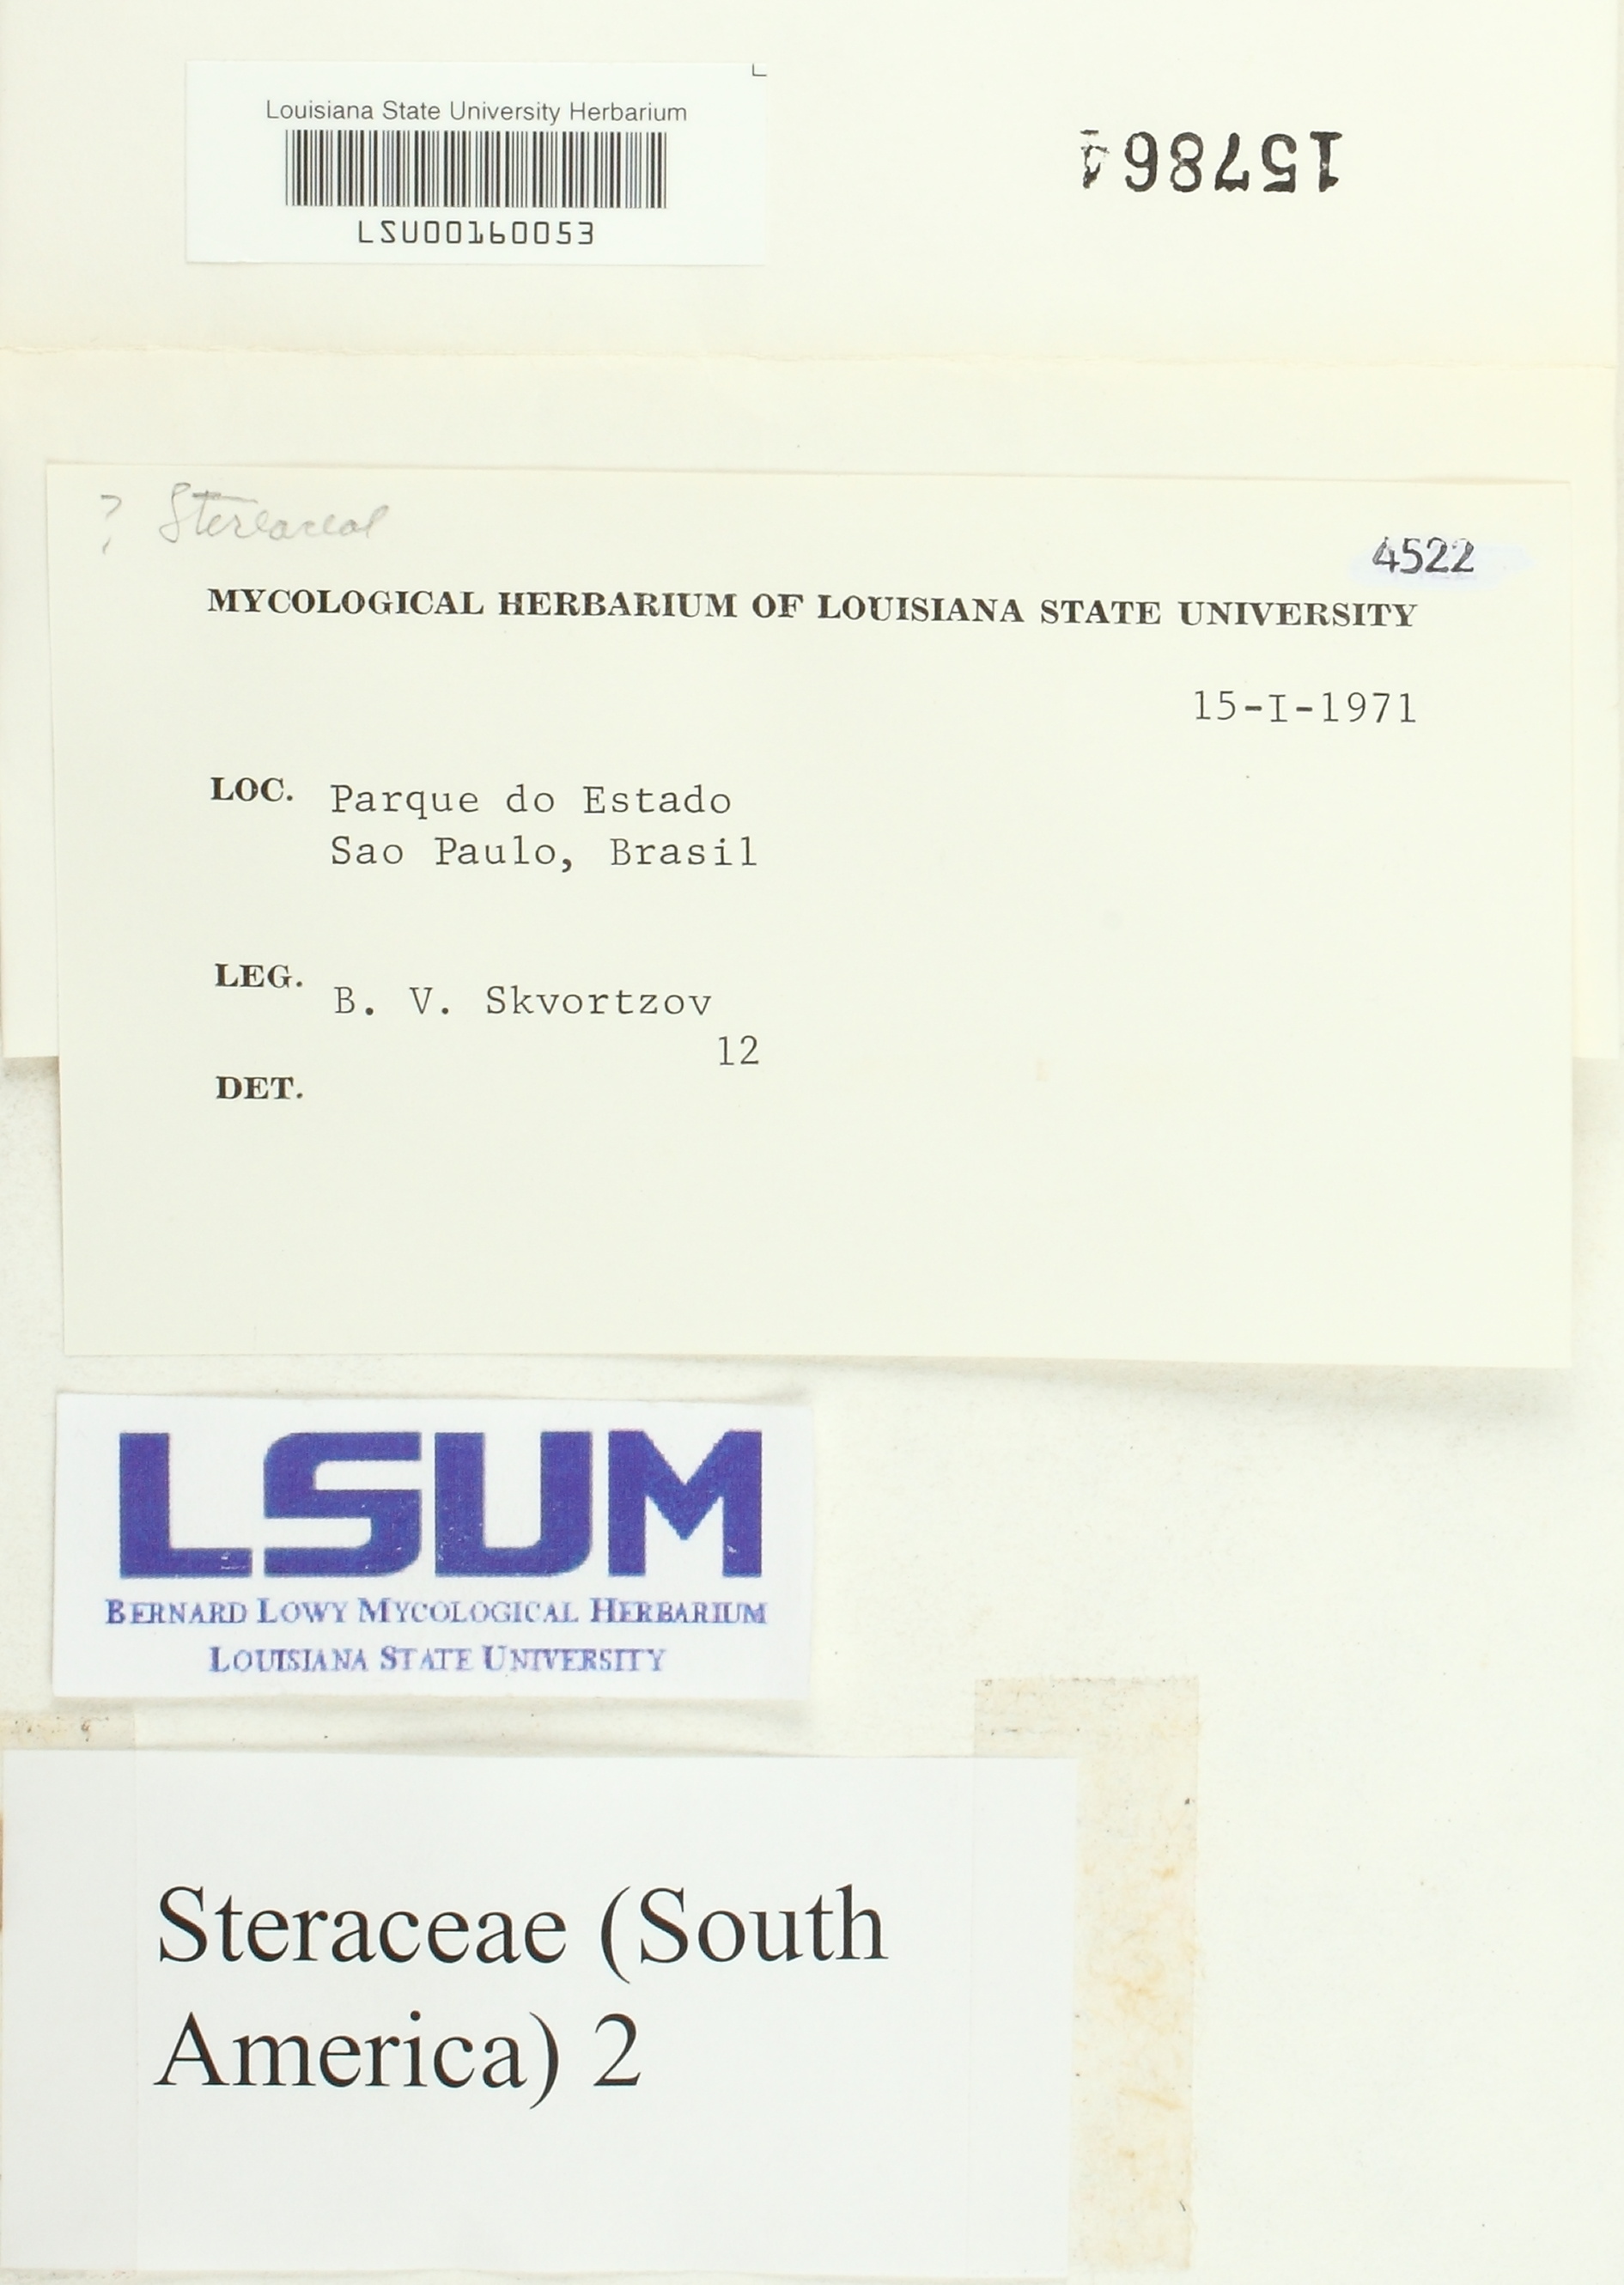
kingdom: Fungi
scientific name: Fungi
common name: Fungi
